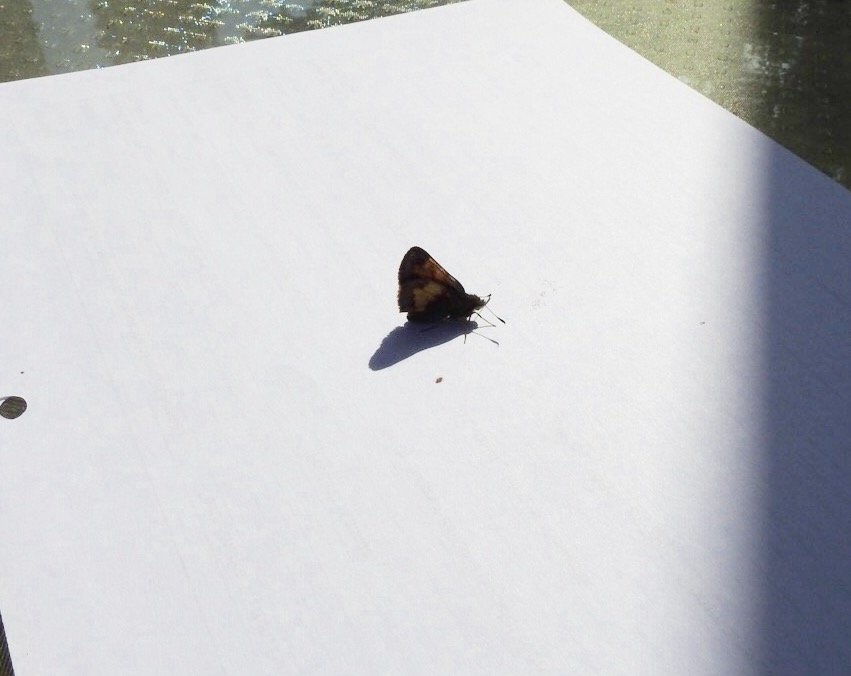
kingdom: Animalia
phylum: Arthropoda
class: Insecta
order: Lepidoptera
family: Hesperiidae
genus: Lon
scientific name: Lon hobomok
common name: Hobomok Skipper
